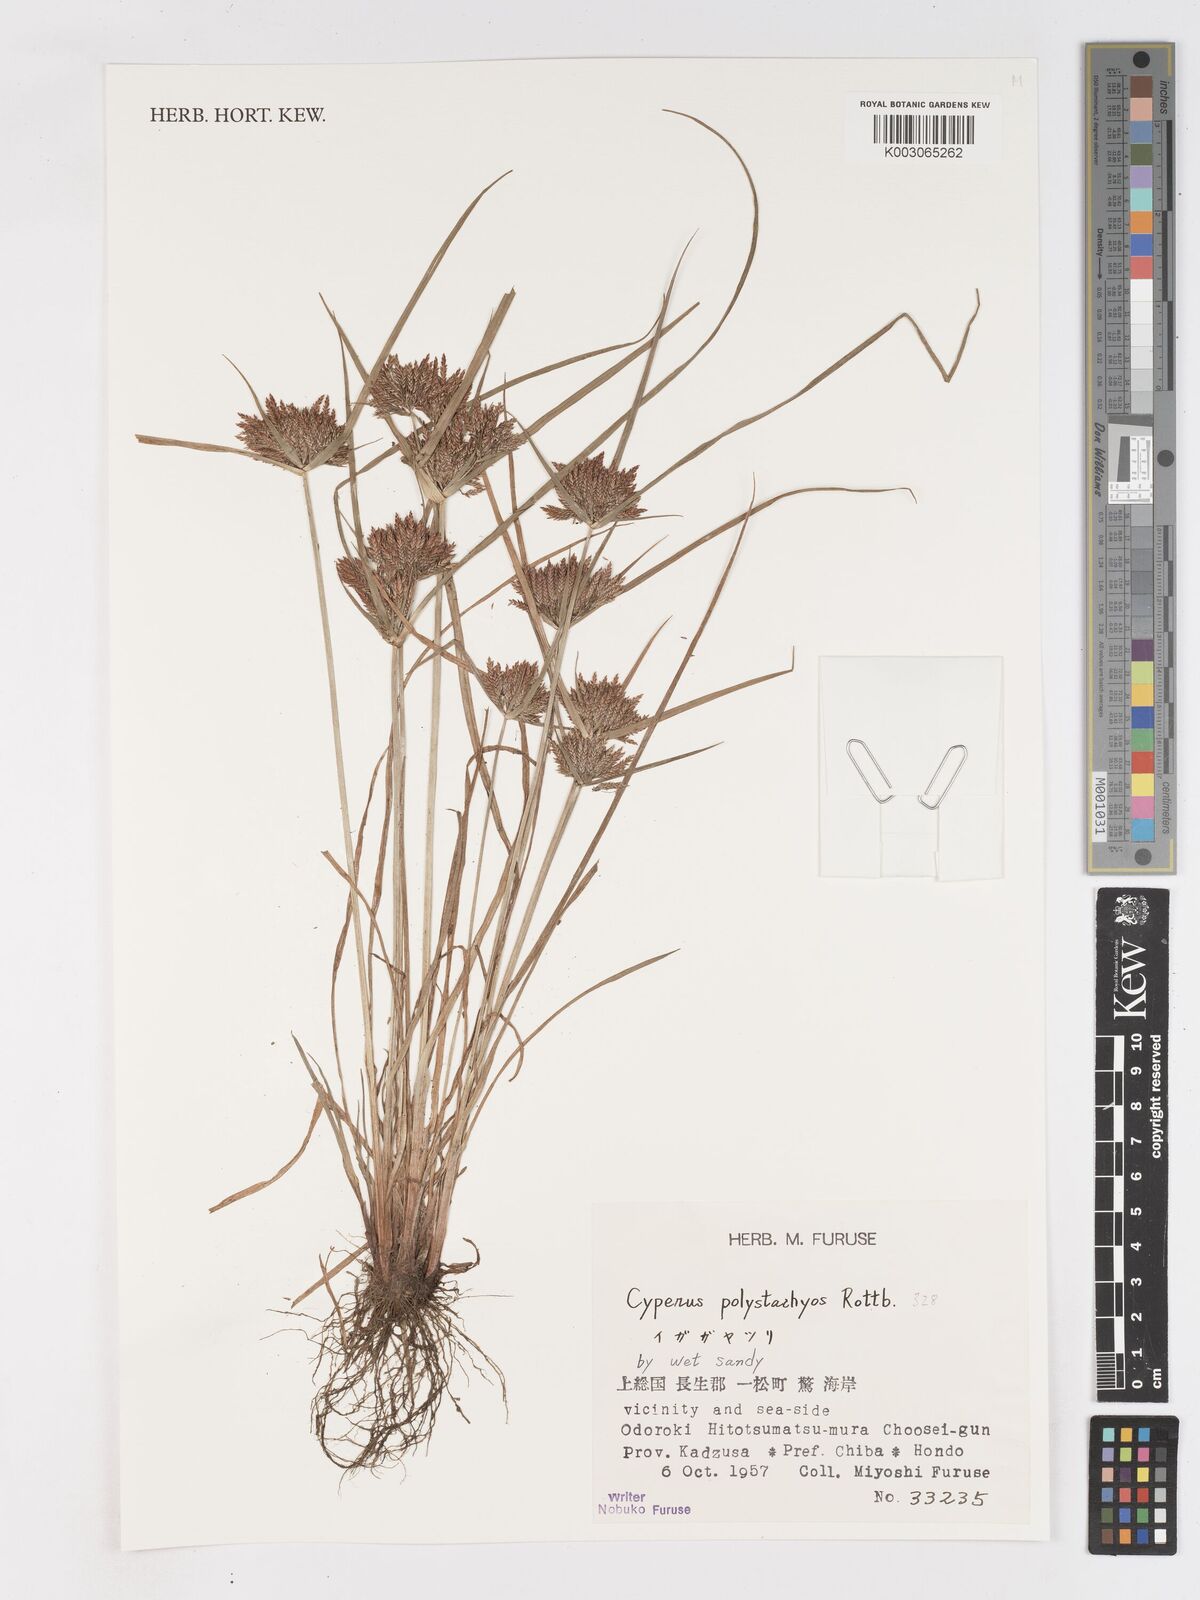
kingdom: Plantae
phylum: Tracheophyta
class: Liliopsida
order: Poales
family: Cyperaceae
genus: Cyperus
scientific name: Cyperus polystachyos
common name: Bunchy flat sedge
